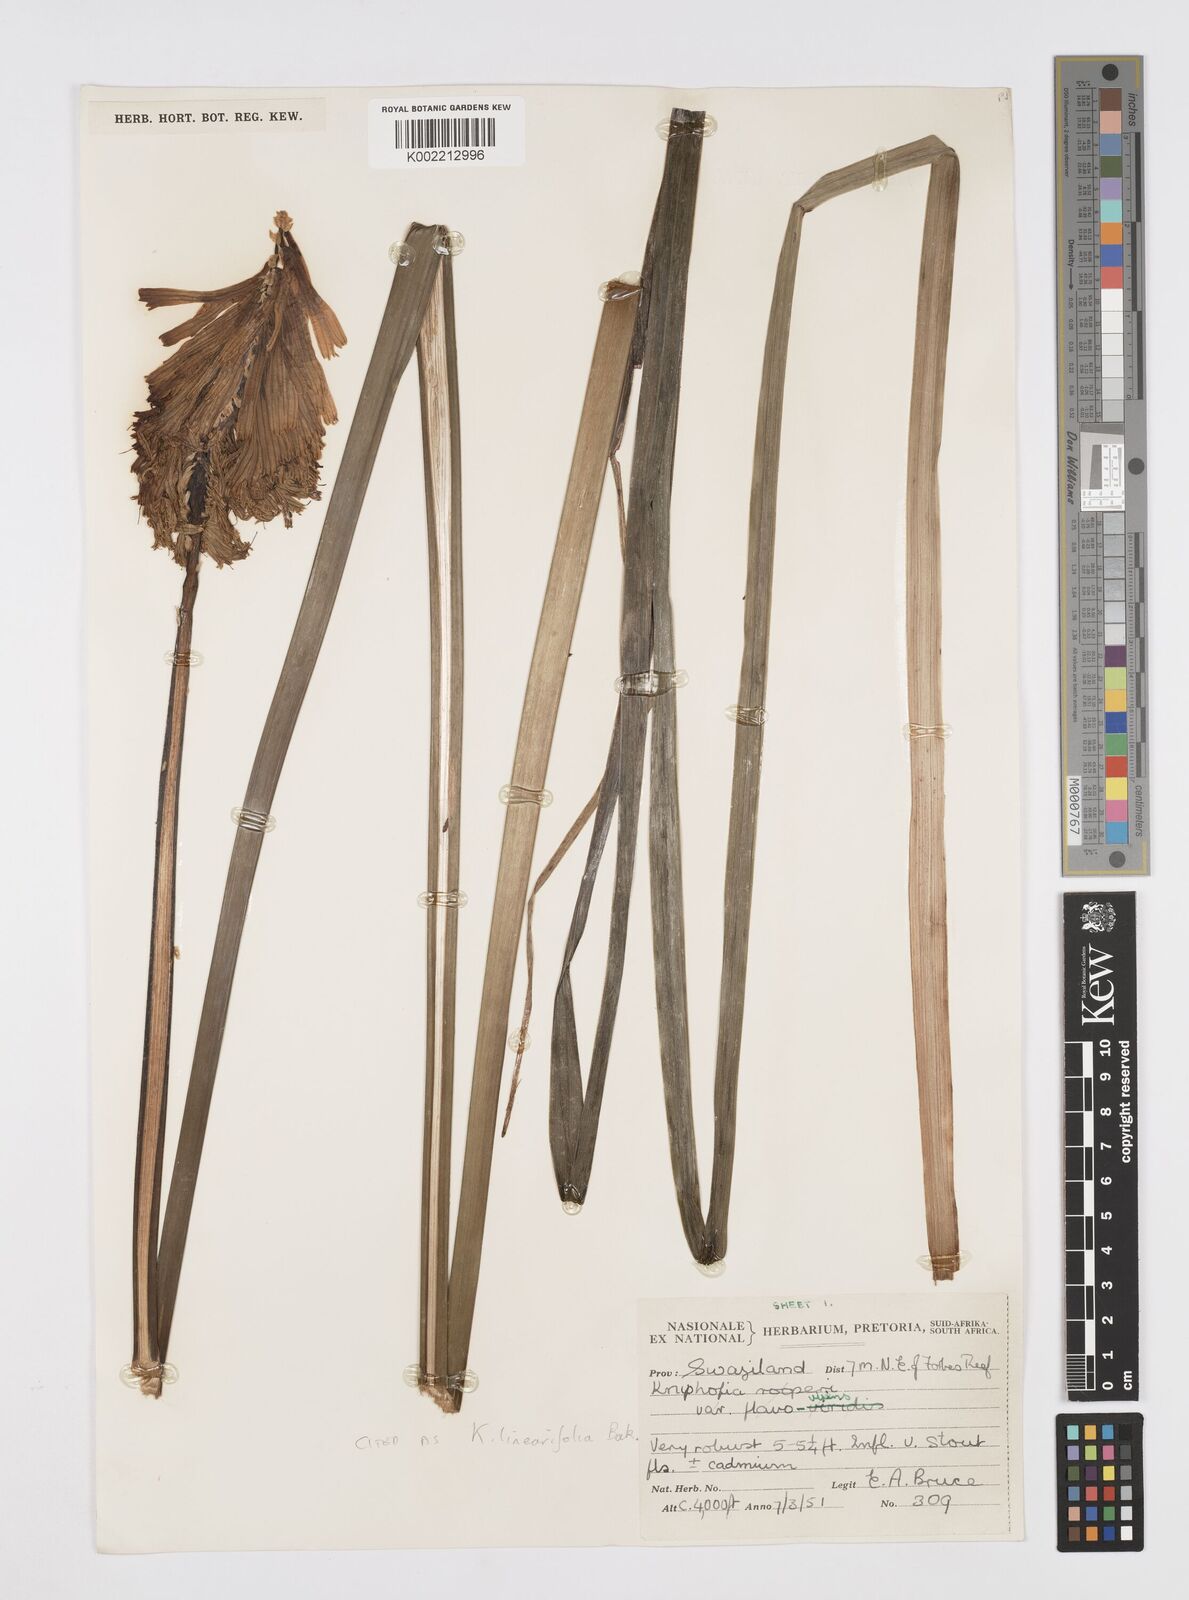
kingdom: Plantae
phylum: Tracheophyta
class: Liliopsida
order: Asparagales
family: Asphodelaceae
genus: Kniphofia
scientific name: Kniphofia linearifolia
